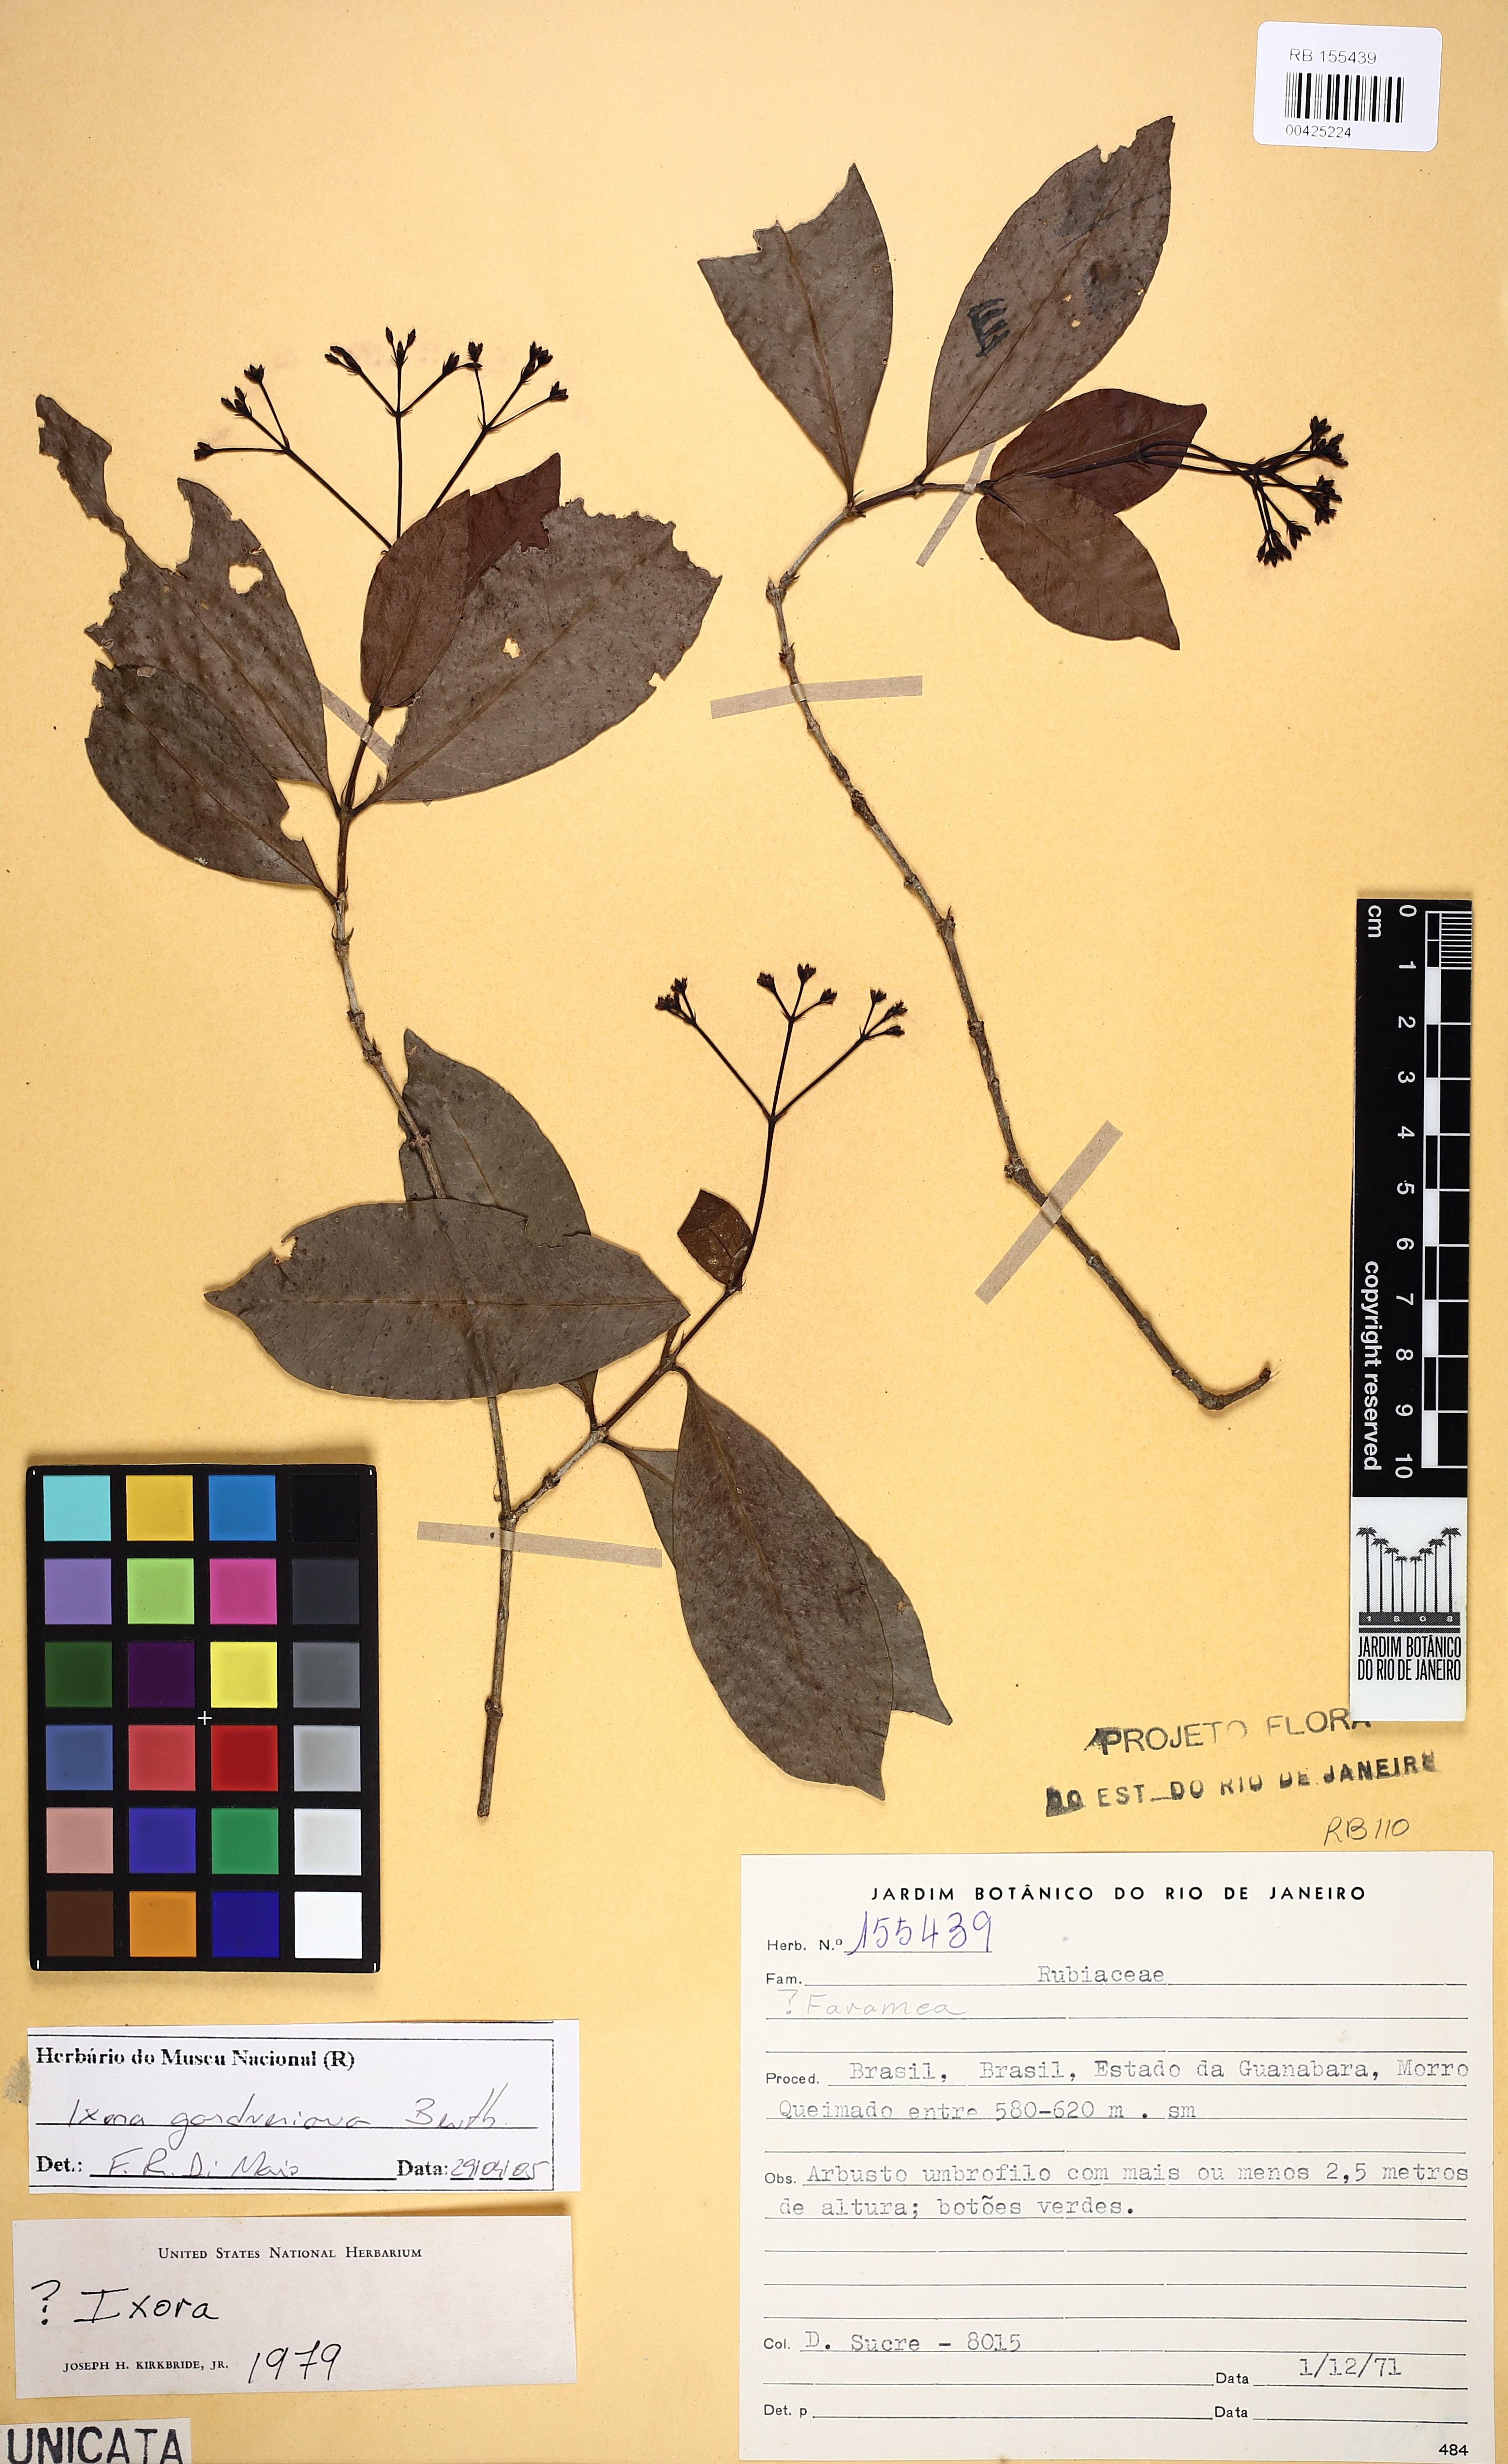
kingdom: Plantae
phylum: Tracheophyta
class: Magnoliopsida
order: Gentianales
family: Rubiaceae
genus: Ixora
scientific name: Ixora gardneriana
